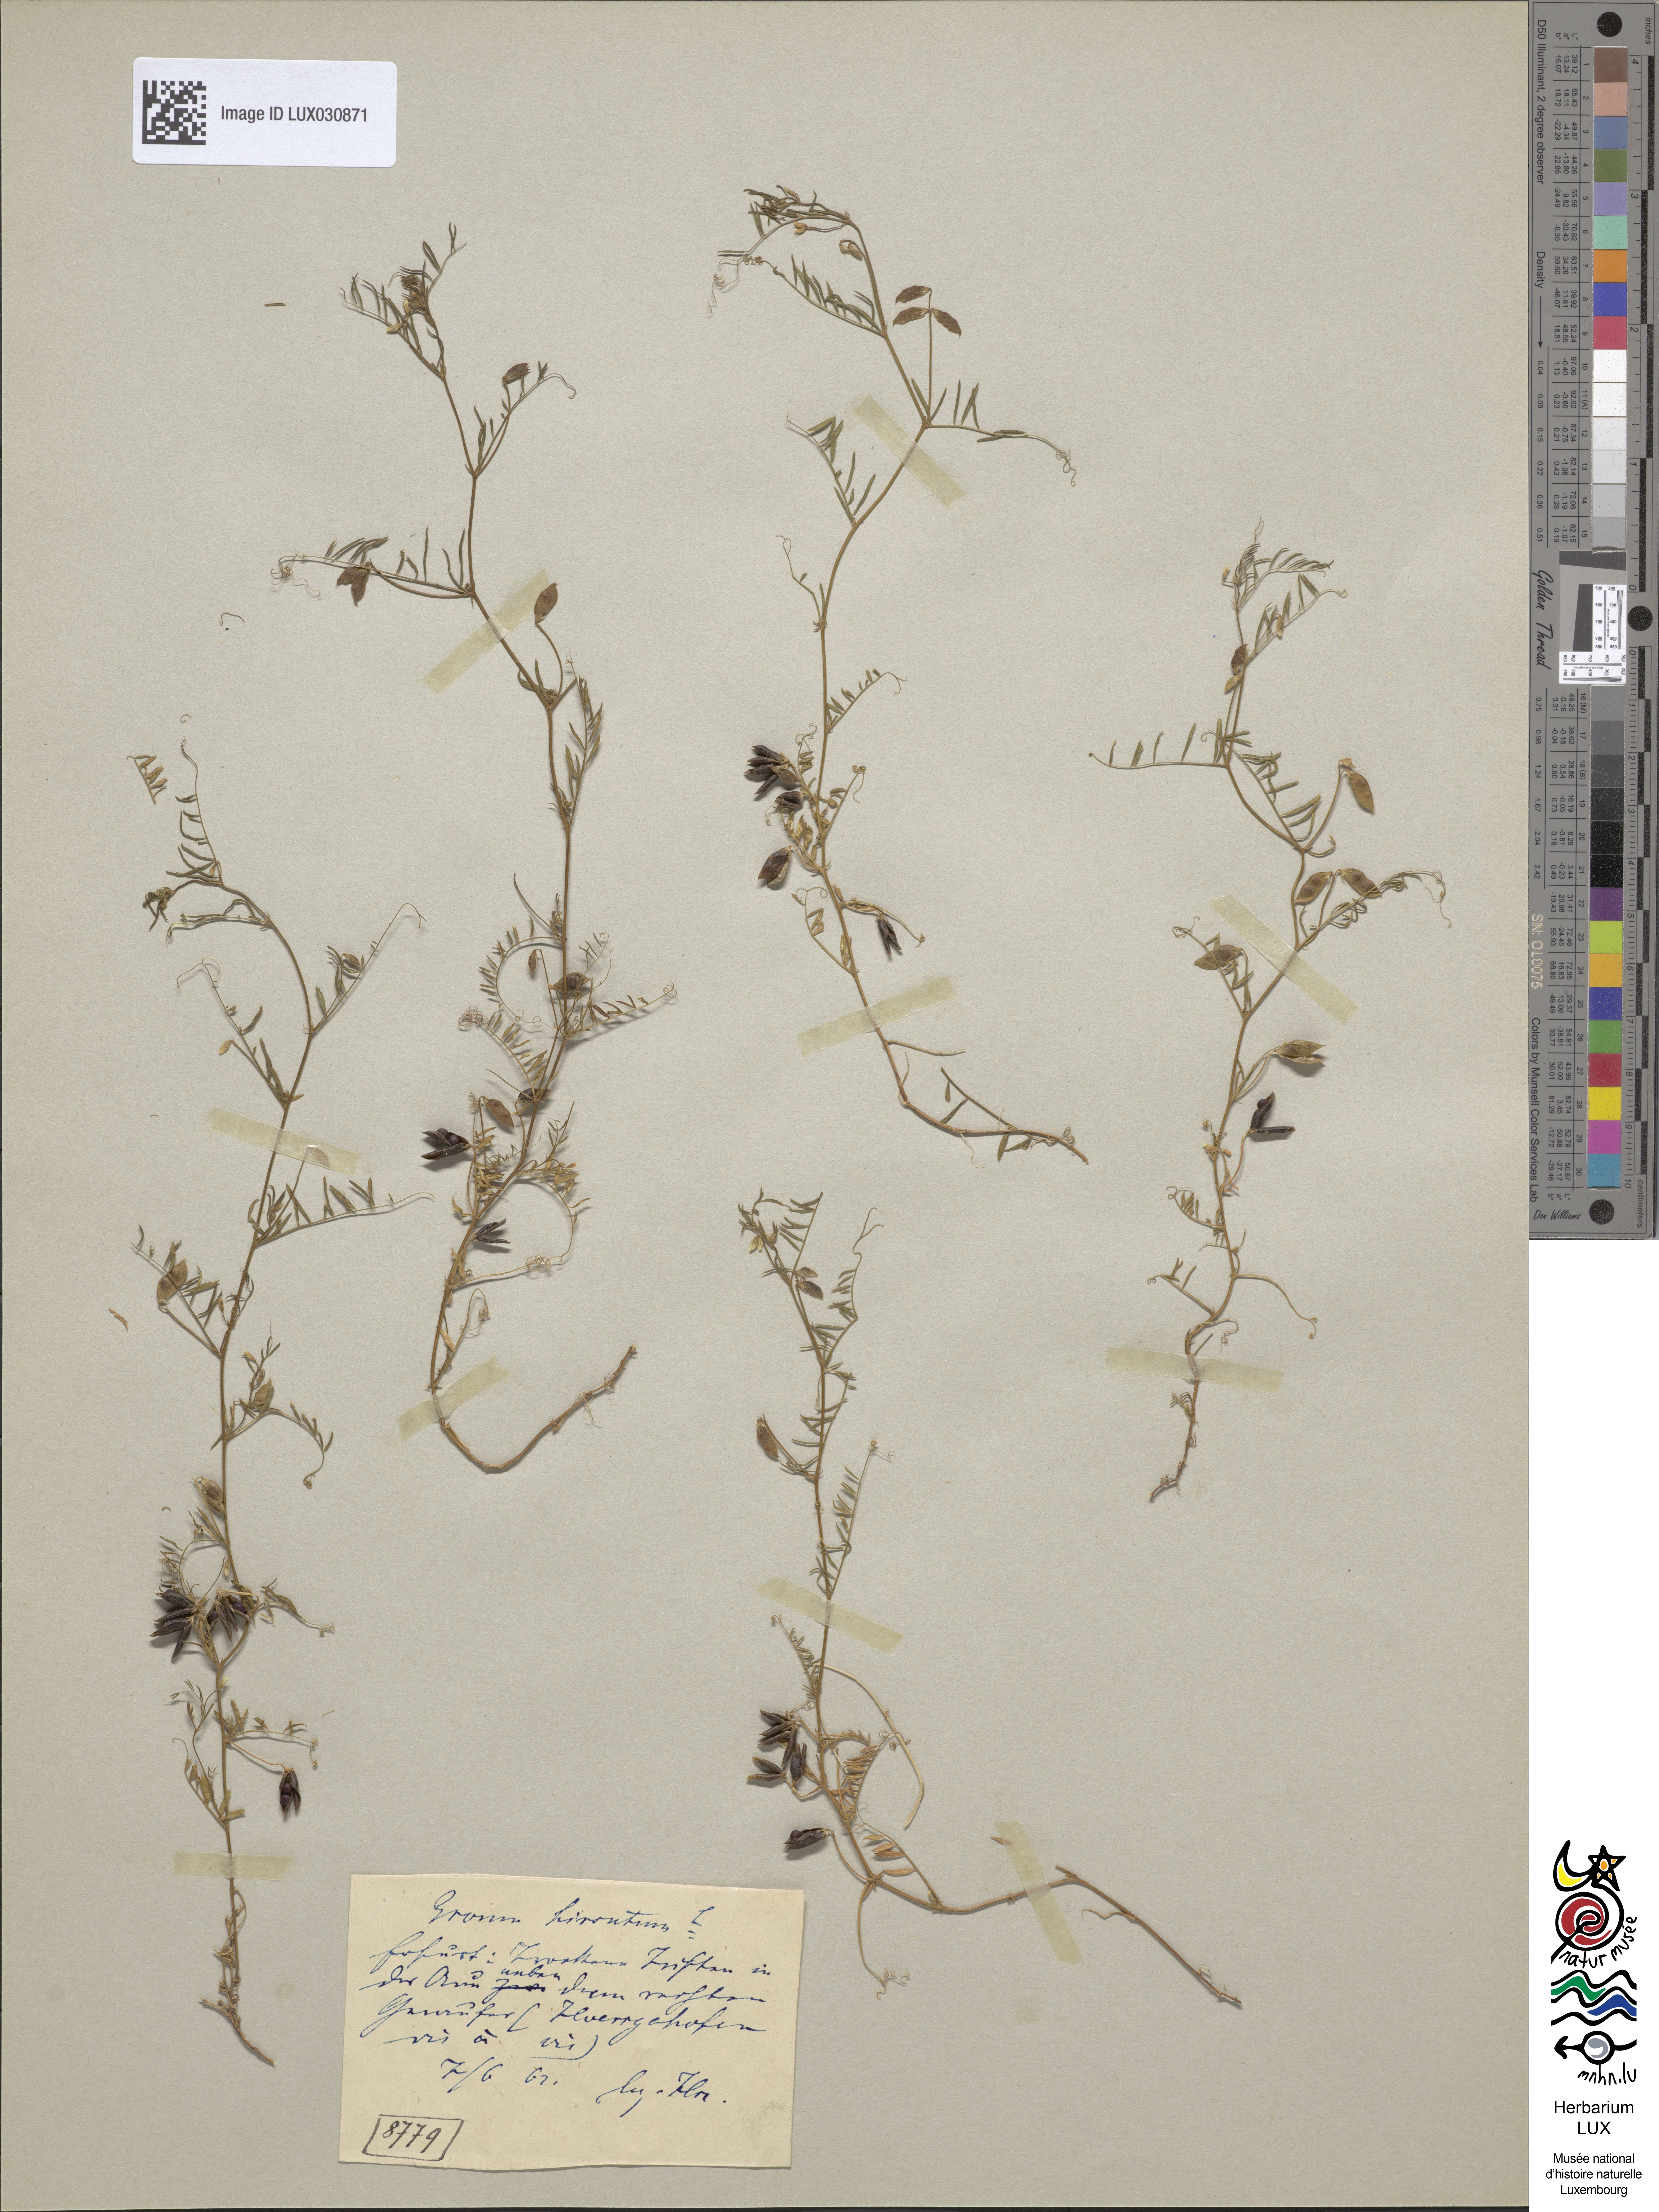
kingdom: Plantae
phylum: Tracheophyta
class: Magnoliopsida
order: Fabales
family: Fabaceae
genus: Vicia
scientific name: Vicia hirsuta
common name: Tiny vetch
